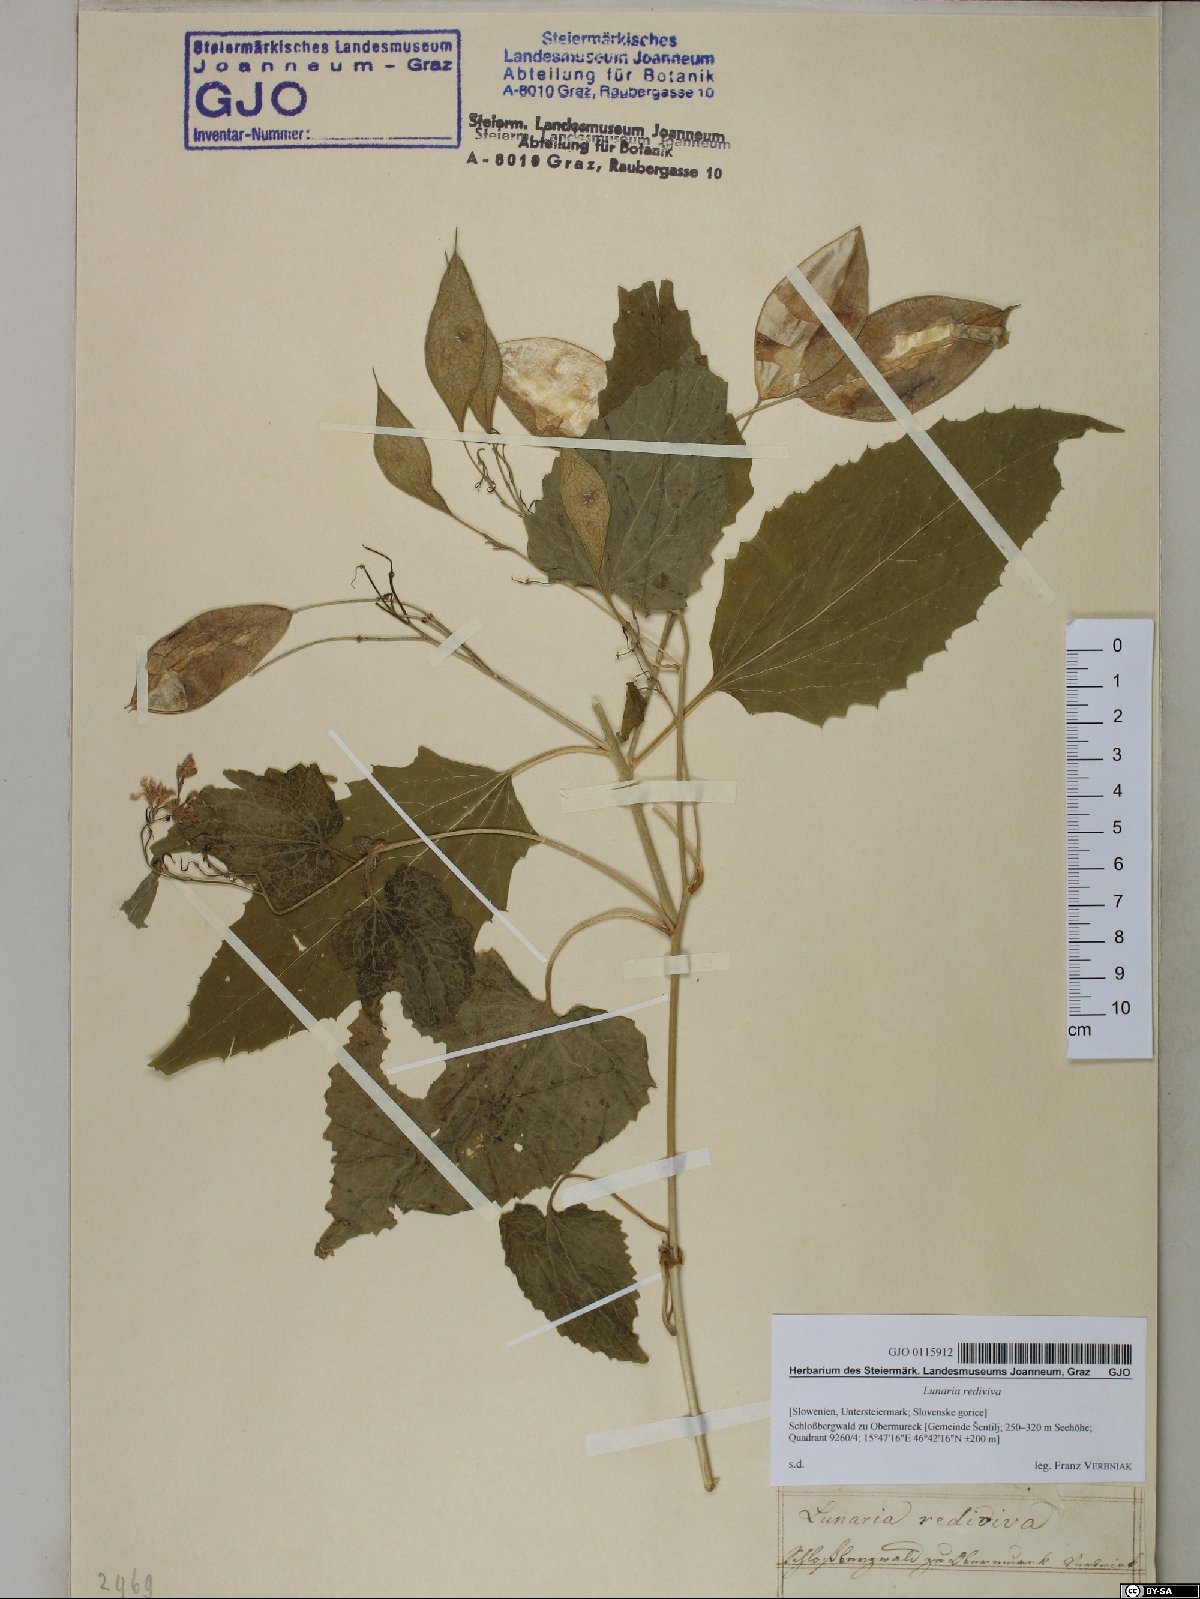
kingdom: Plantae
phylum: Tracheophyta
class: Magnoliopsida
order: Brassicales
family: Brassicaceae
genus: Lunaria
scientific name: Lunaria rediviva
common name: Perennial honesty
